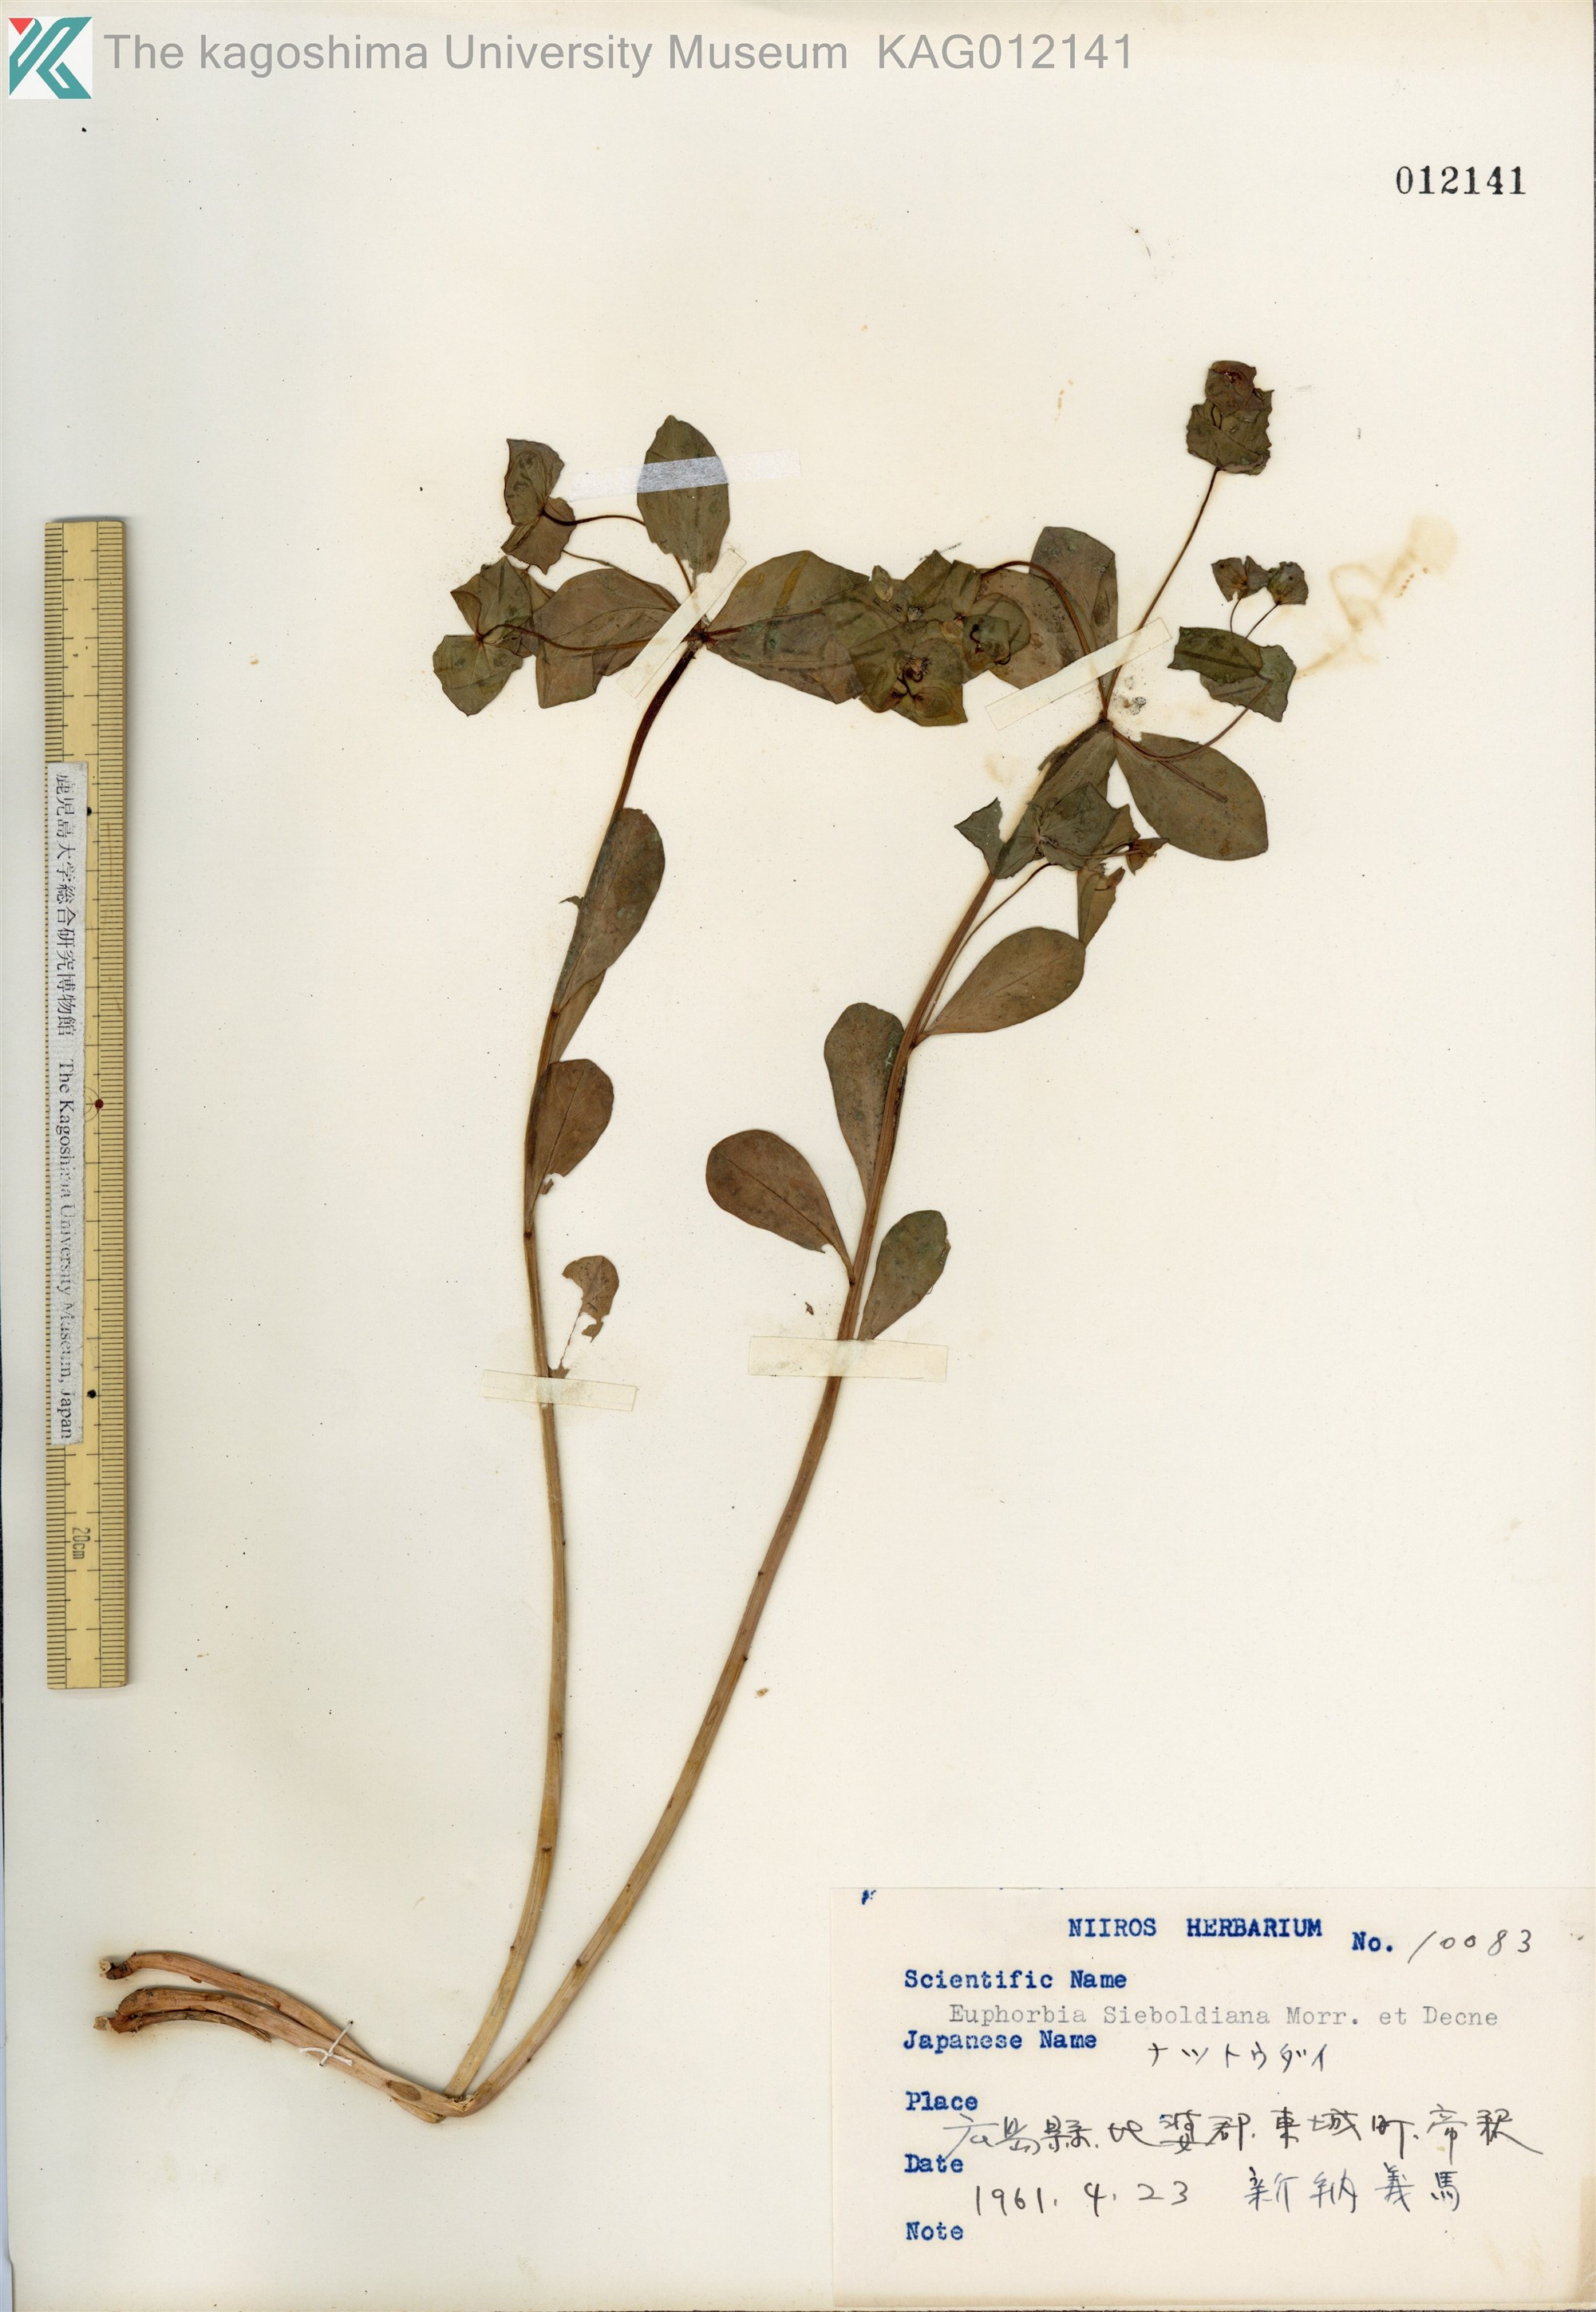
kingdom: Plantae
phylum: Tracheophyta
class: Magnoliopsida
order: Malpighiales
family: Euphorbiaceae
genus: Euphorbia
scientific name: Euphorbia sieboldiana
